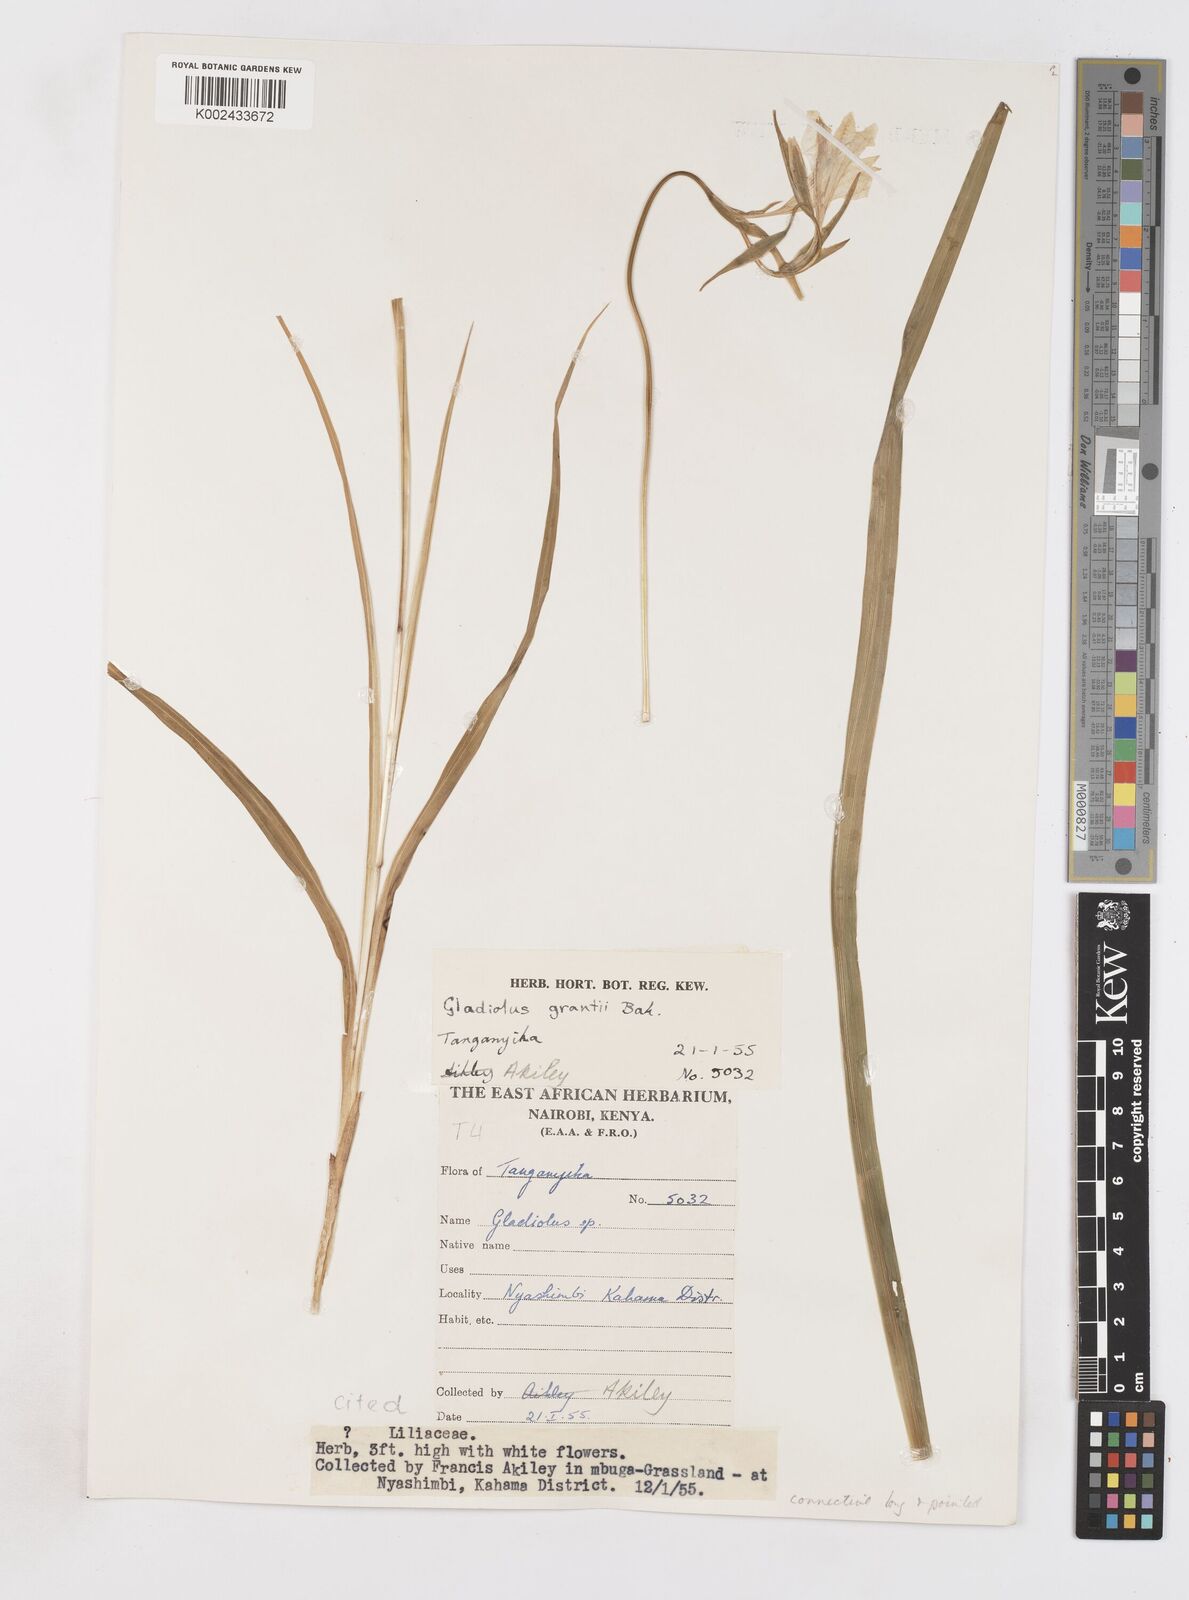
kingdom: Plantae
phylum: Tracheophyta
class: Liliopsida
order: Asparagales
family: Iridaceae
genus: Gladiolus
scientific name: Gladiolus grantii
